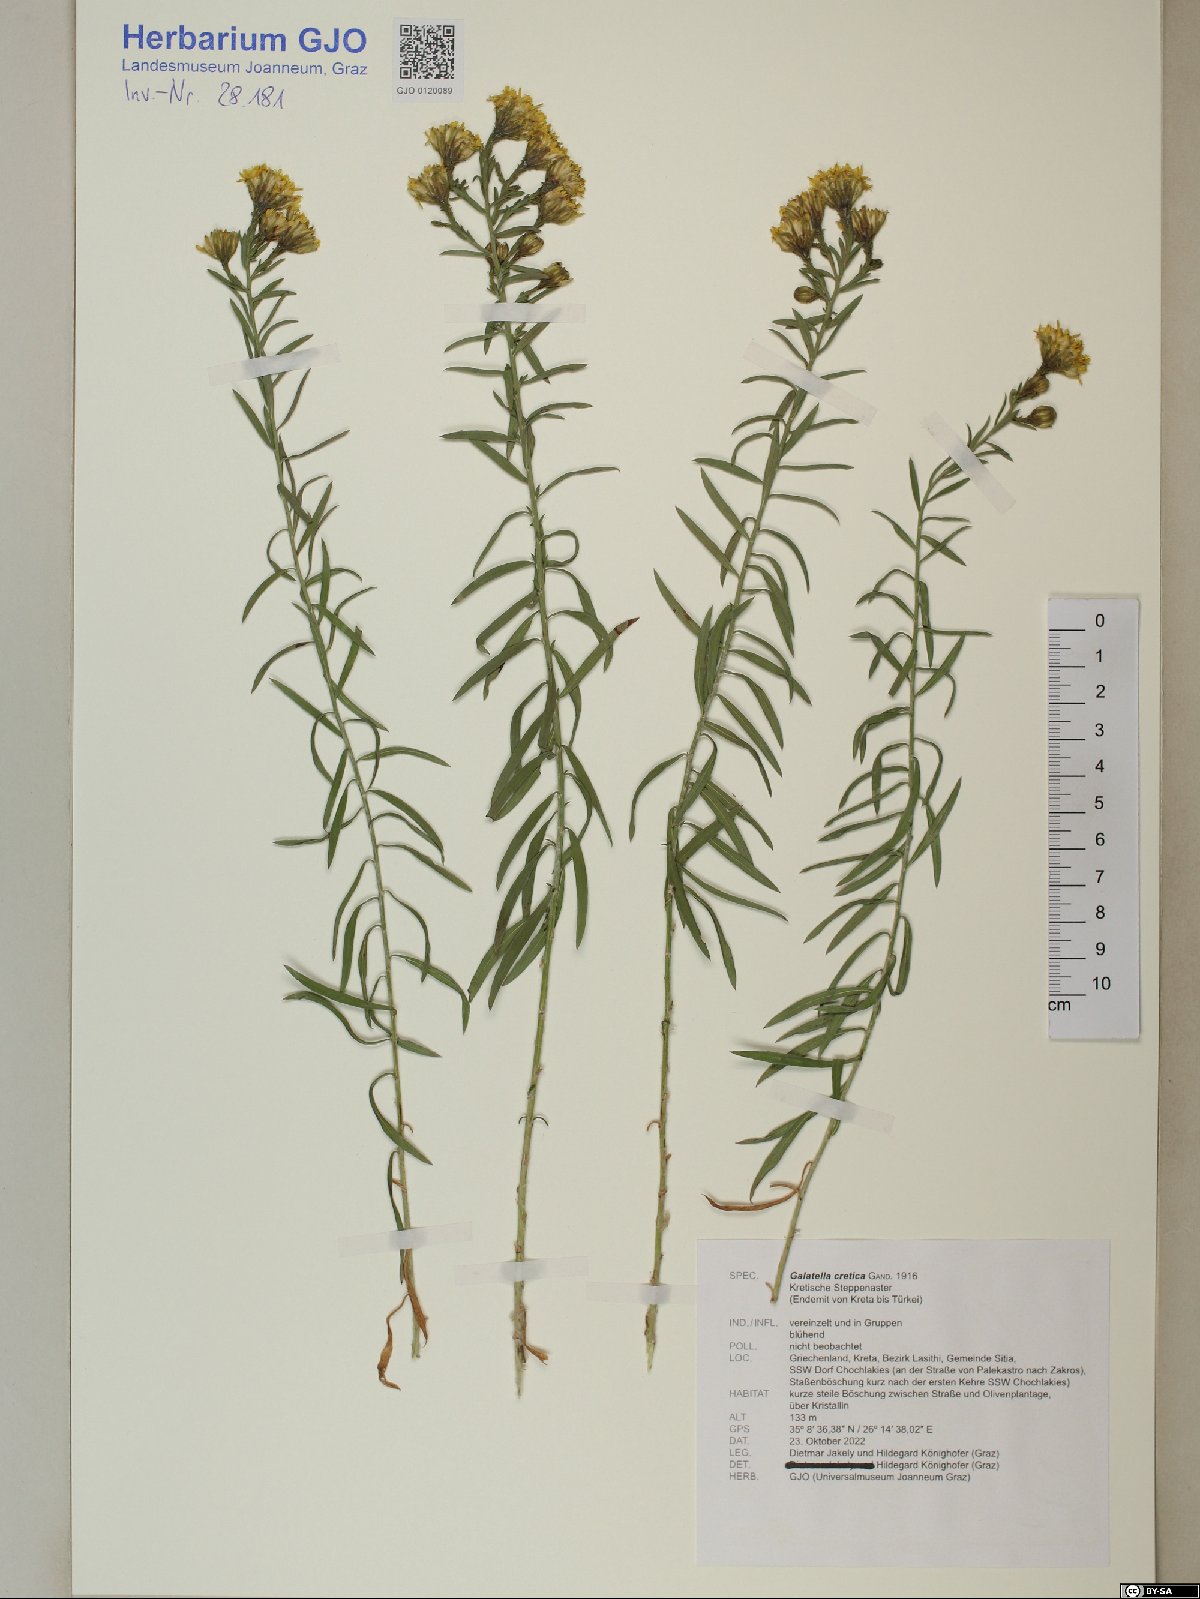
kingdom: Plantae
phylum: Tracheophyta
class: Magnoliopsida
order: Asterales
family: Asteraceae
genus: Galatella
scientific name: Galatella cretica
